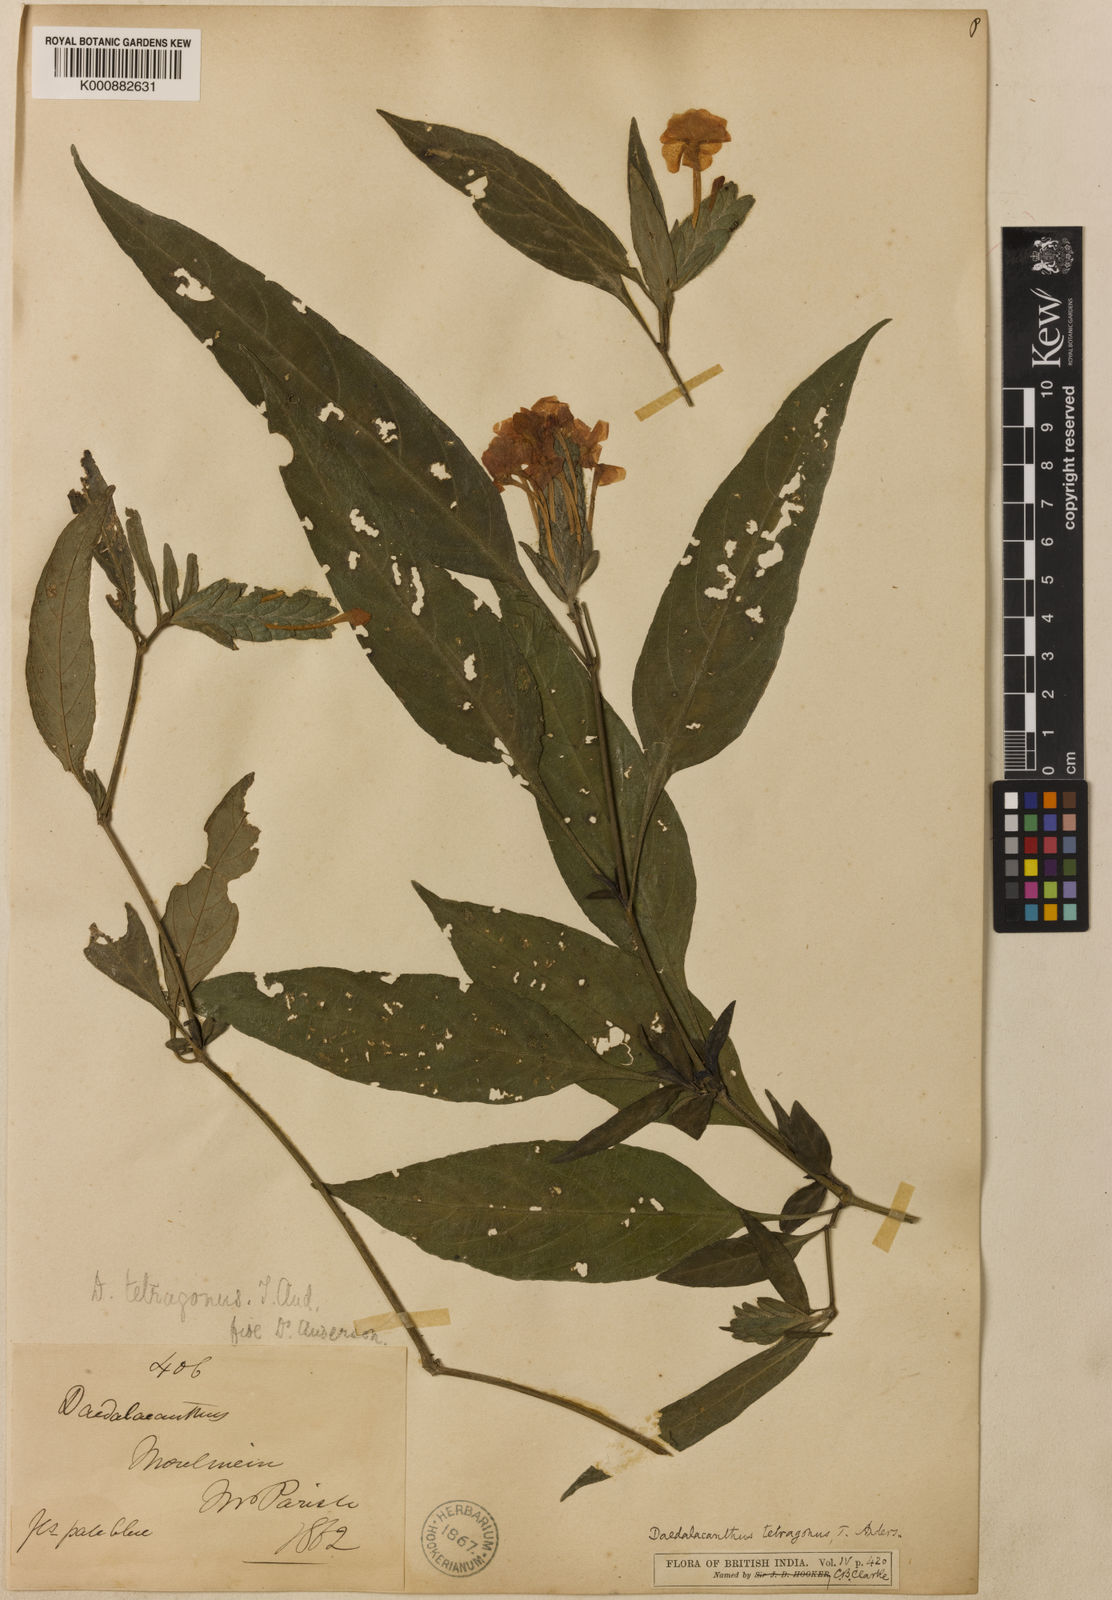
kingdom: Plantae
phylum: Tracheophyta
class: Magnoliopsida
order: Lamiales
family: Acanthaceae
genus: Eranthemum
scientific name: Eranthemum tetragonum
